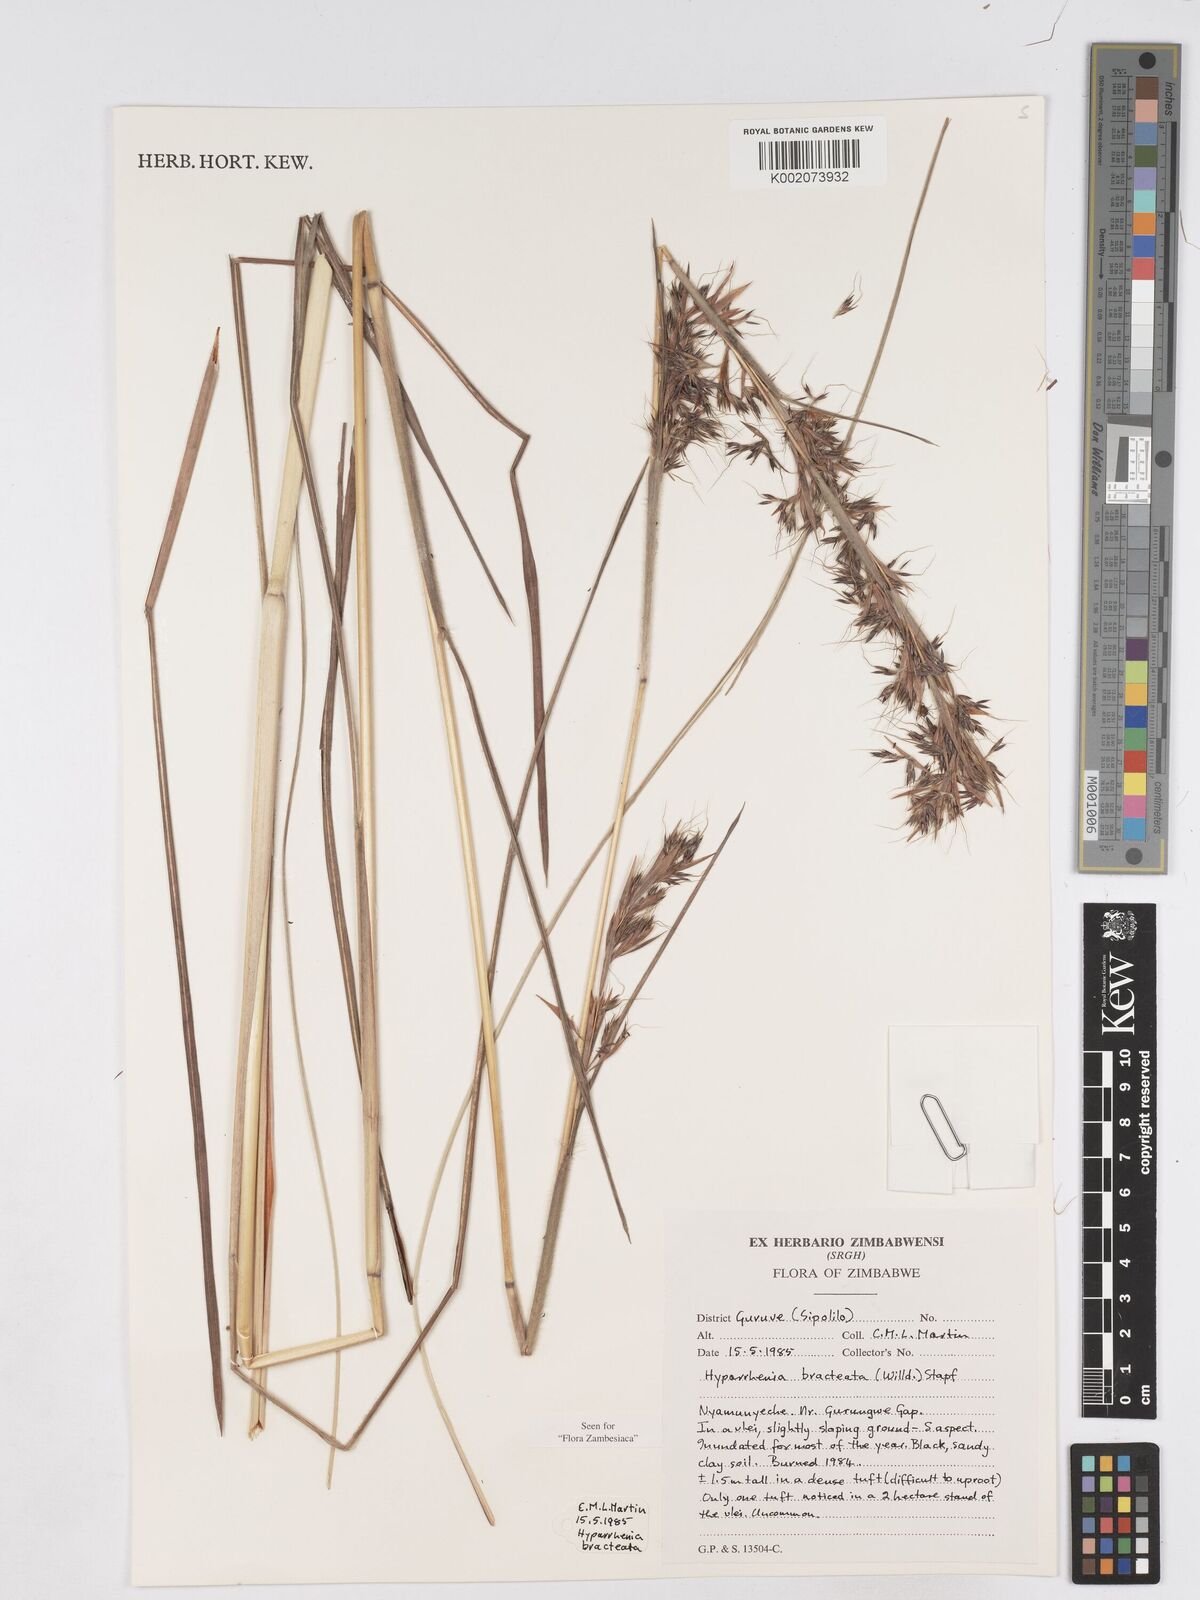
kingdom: Plantae
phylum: Tracheophyta
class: Liliopsida
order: Poales
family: Poaceae
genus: Hyparrhenia
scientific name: Hyparrhenia bracteata
